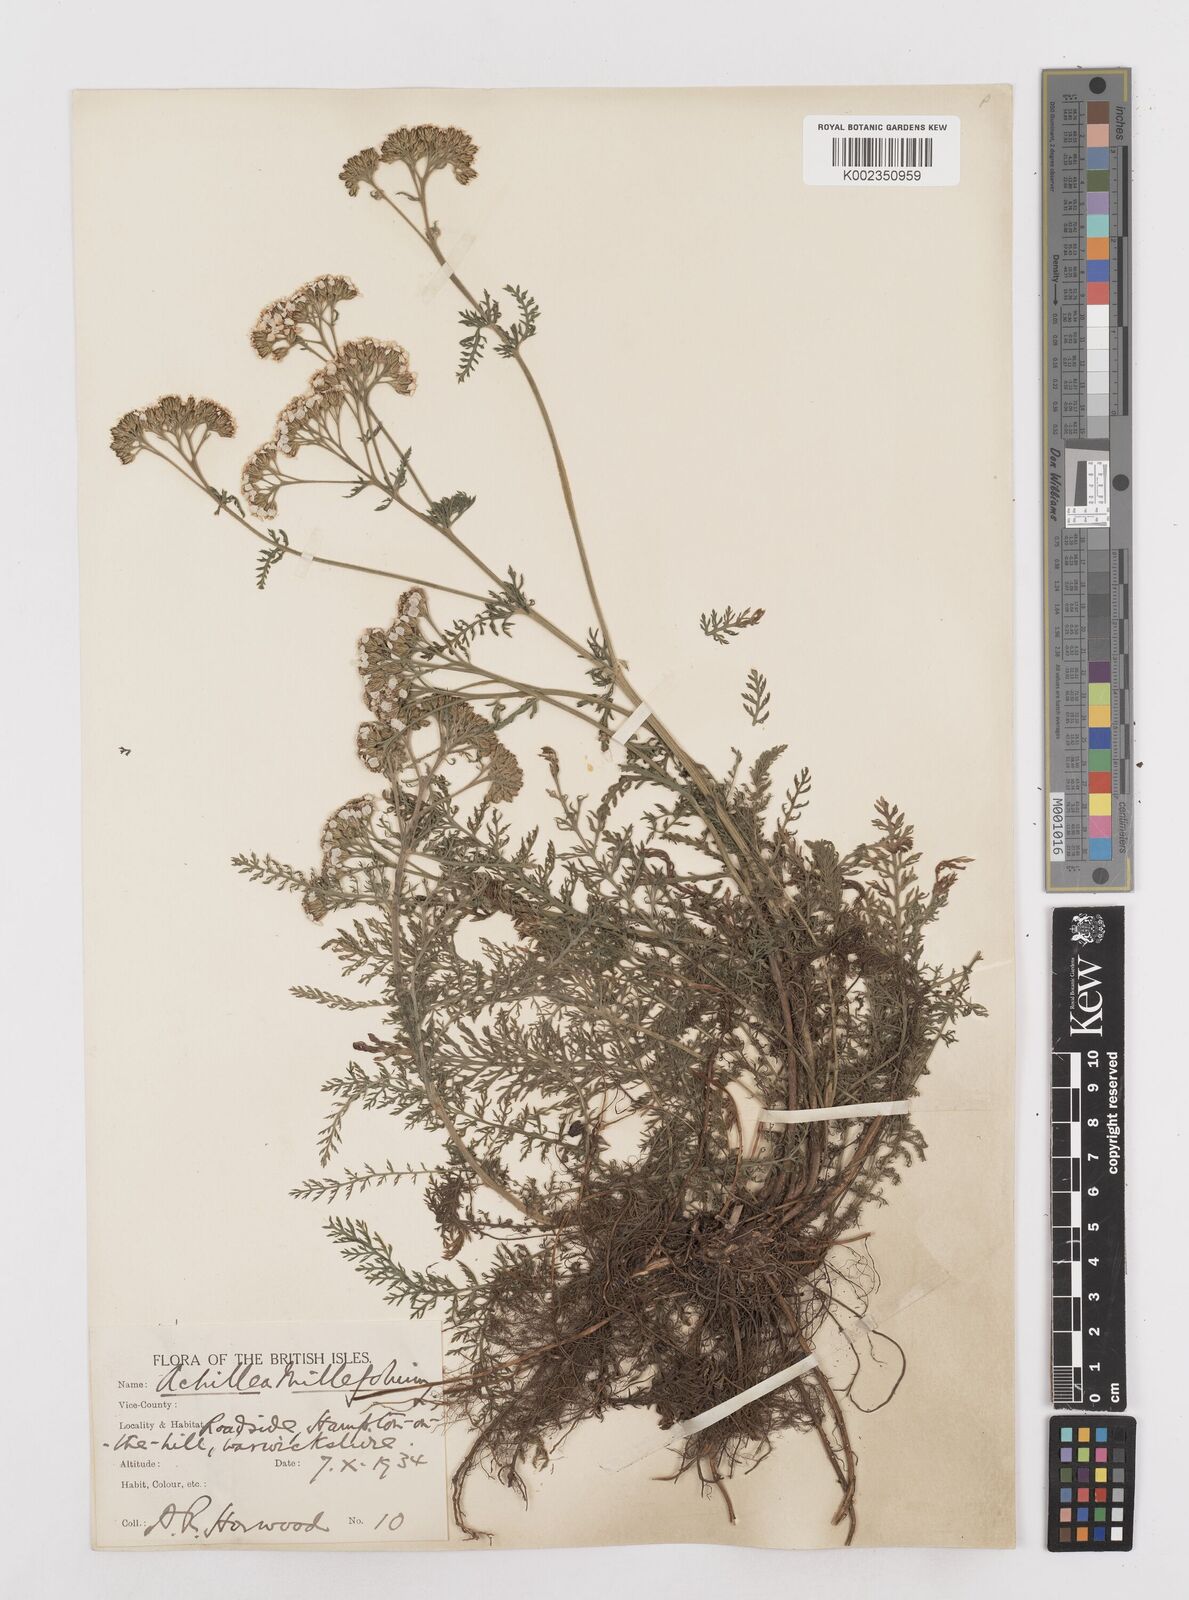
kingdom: Plantae
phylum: Tracheophyta
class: Magnoliopsida
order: Asterales
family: Asteraceae
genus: Achillea
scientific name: Achillea millefolium
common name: Yarrow
